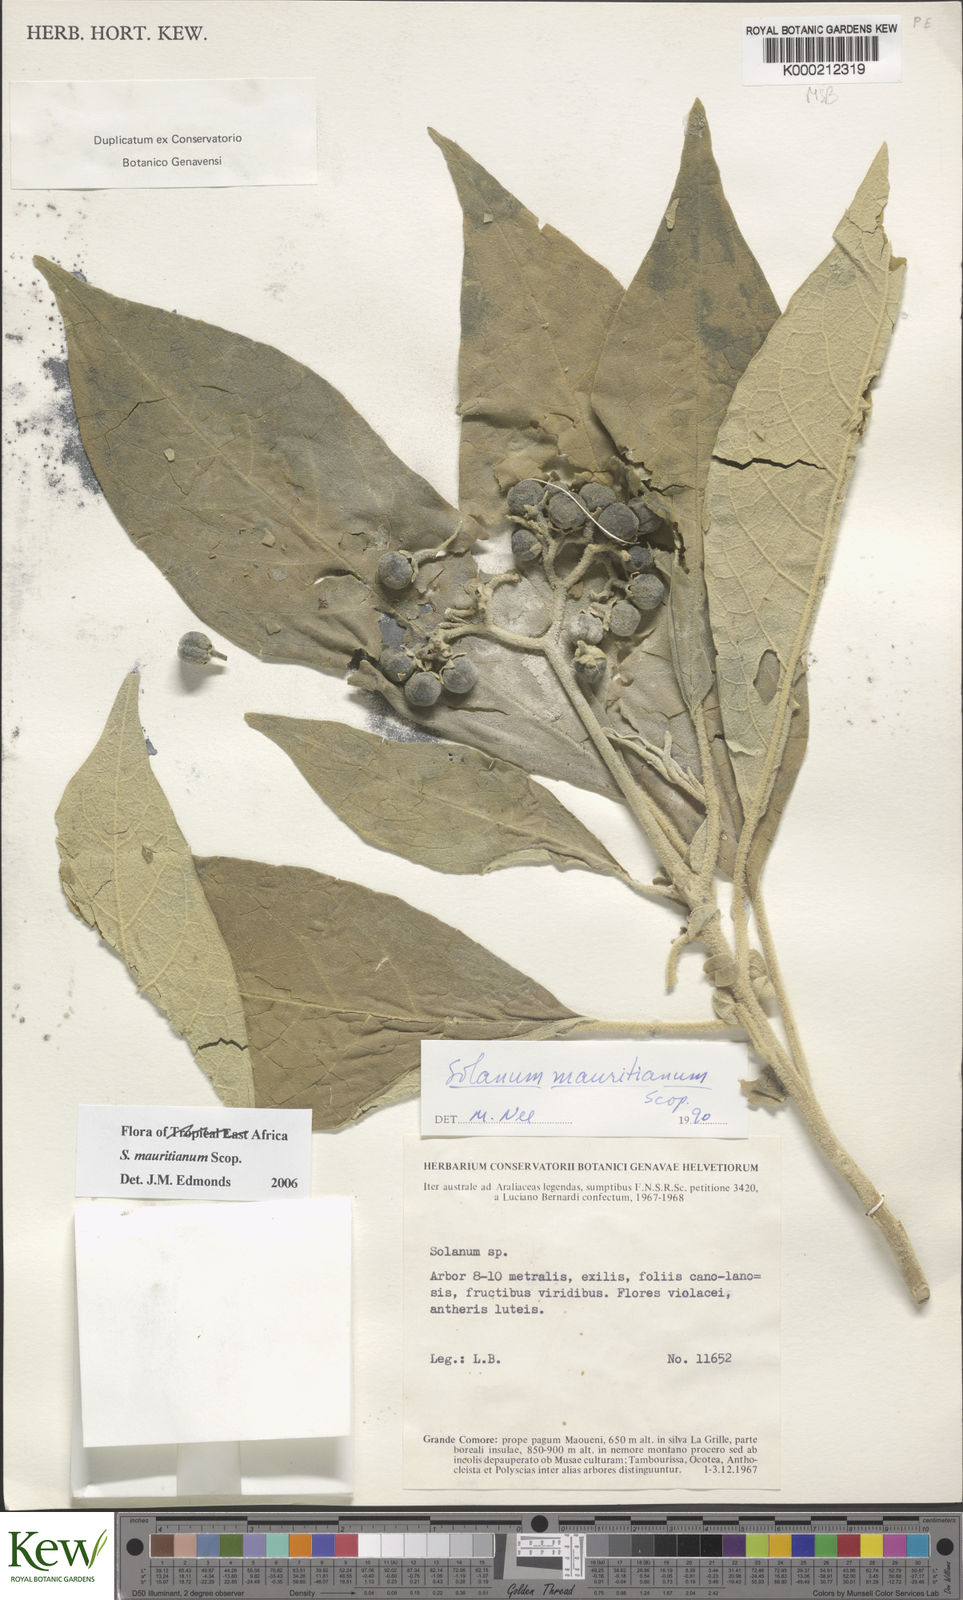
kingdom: Plantae
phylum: Tracheophyta
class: Magnoliopsida
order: Solanales
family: Solanaceae
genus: Solanum
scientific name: Solanum mauritianum
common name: Earleaf nightshade
